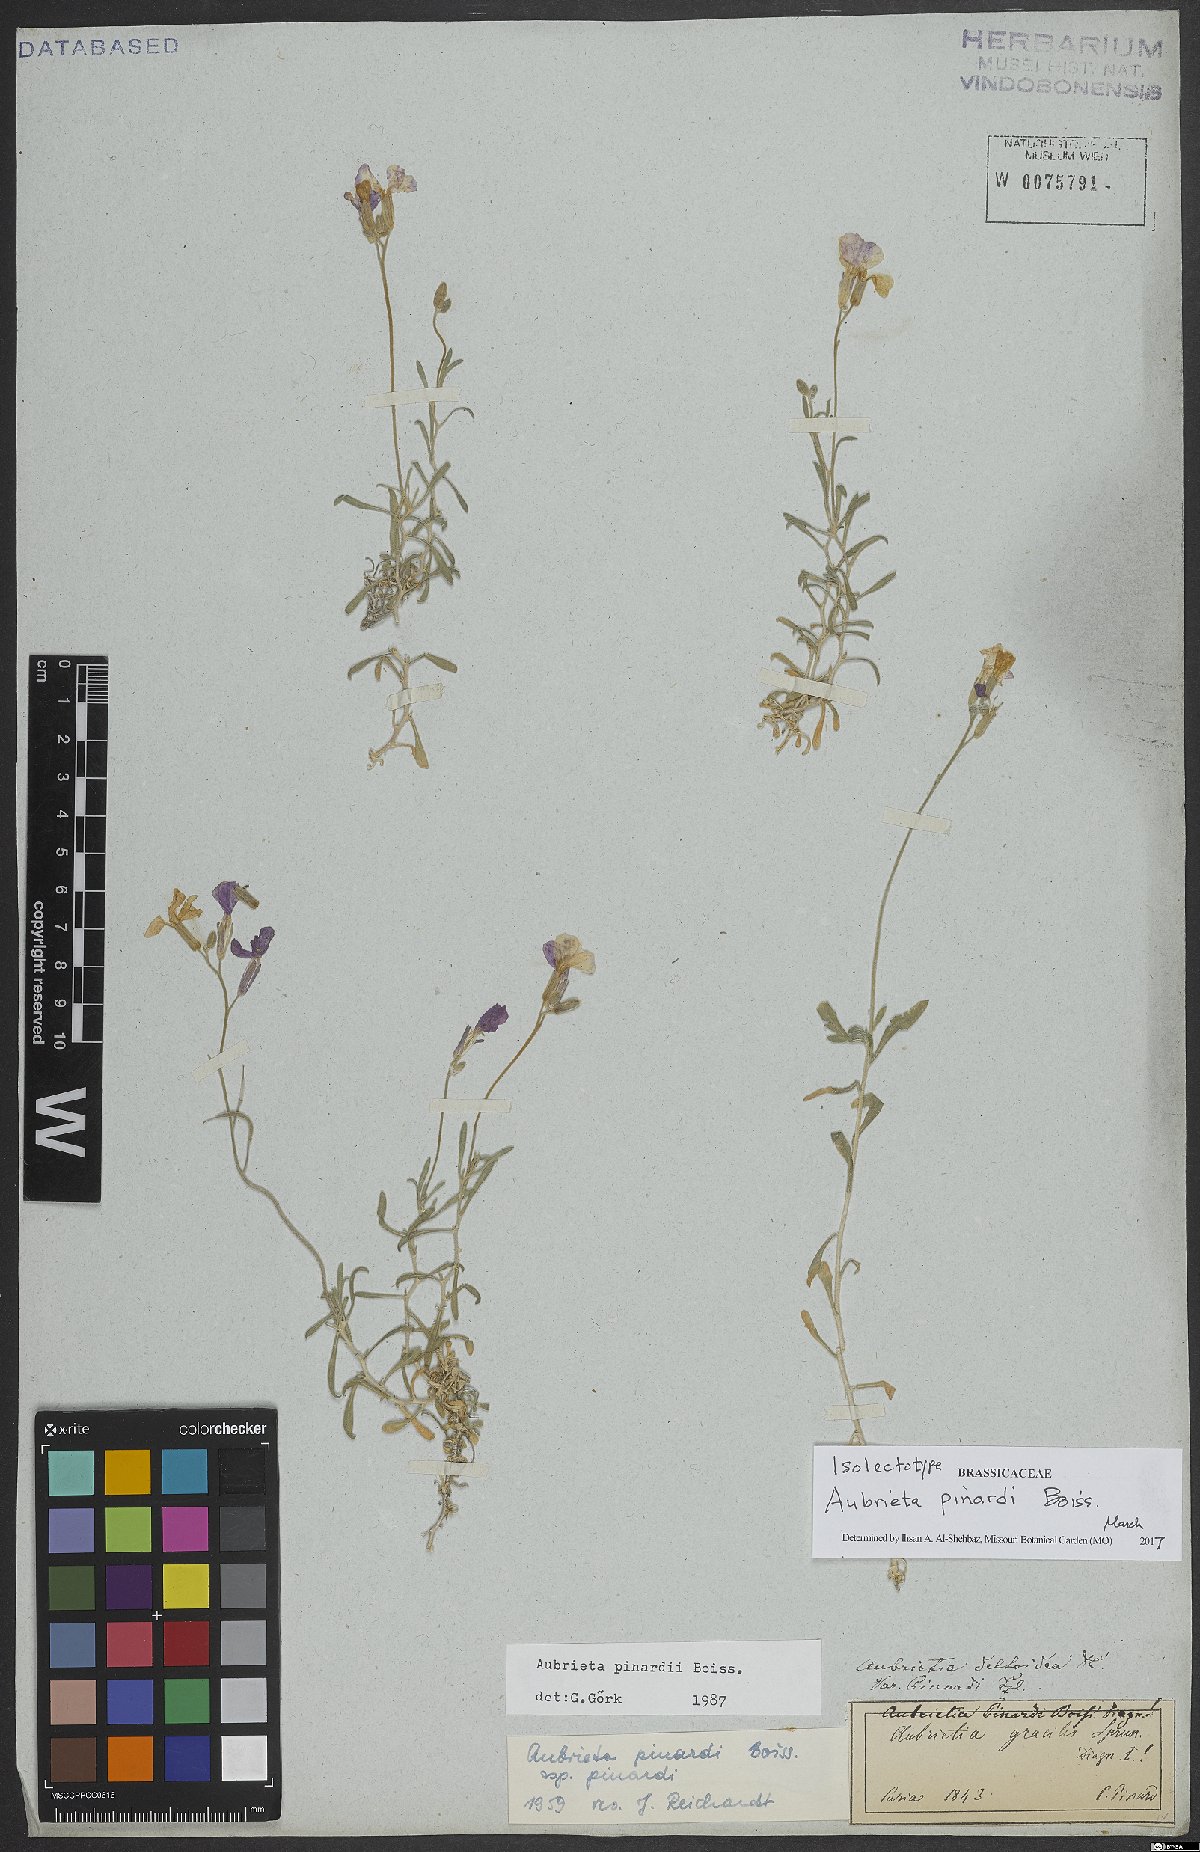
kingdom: Plantae
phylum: Tracheophyta
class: Magnoliopsida
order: Brassicales
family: Brassicaceae
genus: Aubrieta
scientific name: Aubrieta pinardii
